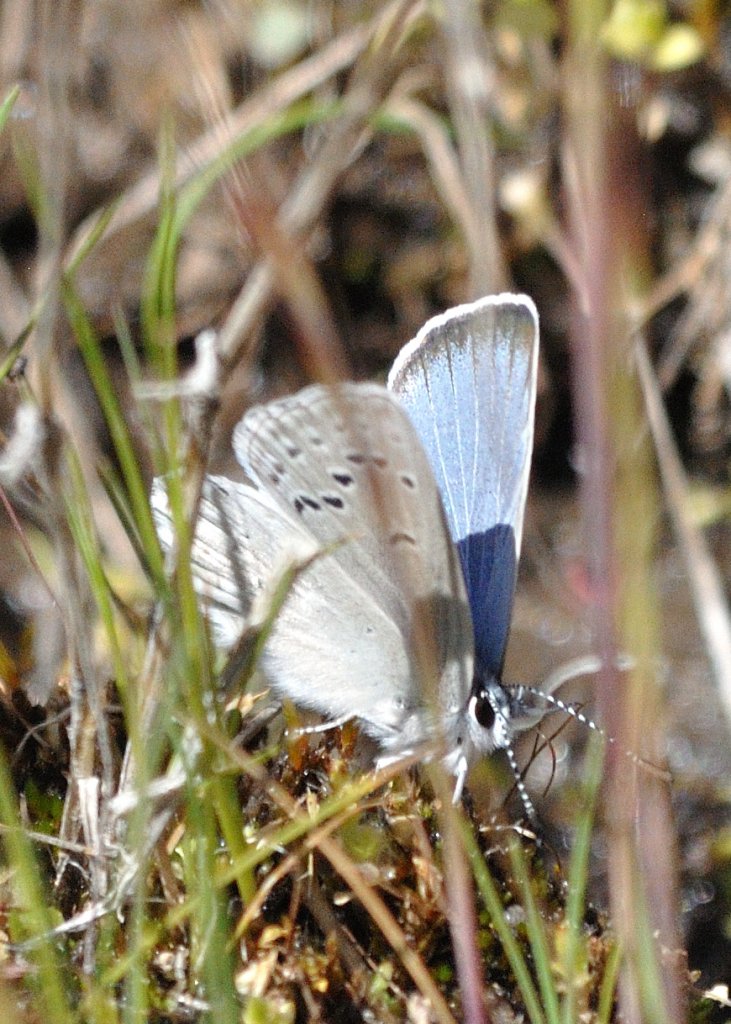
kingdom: Animalia
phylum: Arthropoda
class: Insecta
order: Lepidoptera
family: Lycaenidae
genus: Icaricia
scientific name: Icaricia icarioides
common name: Boisduval's Blue
